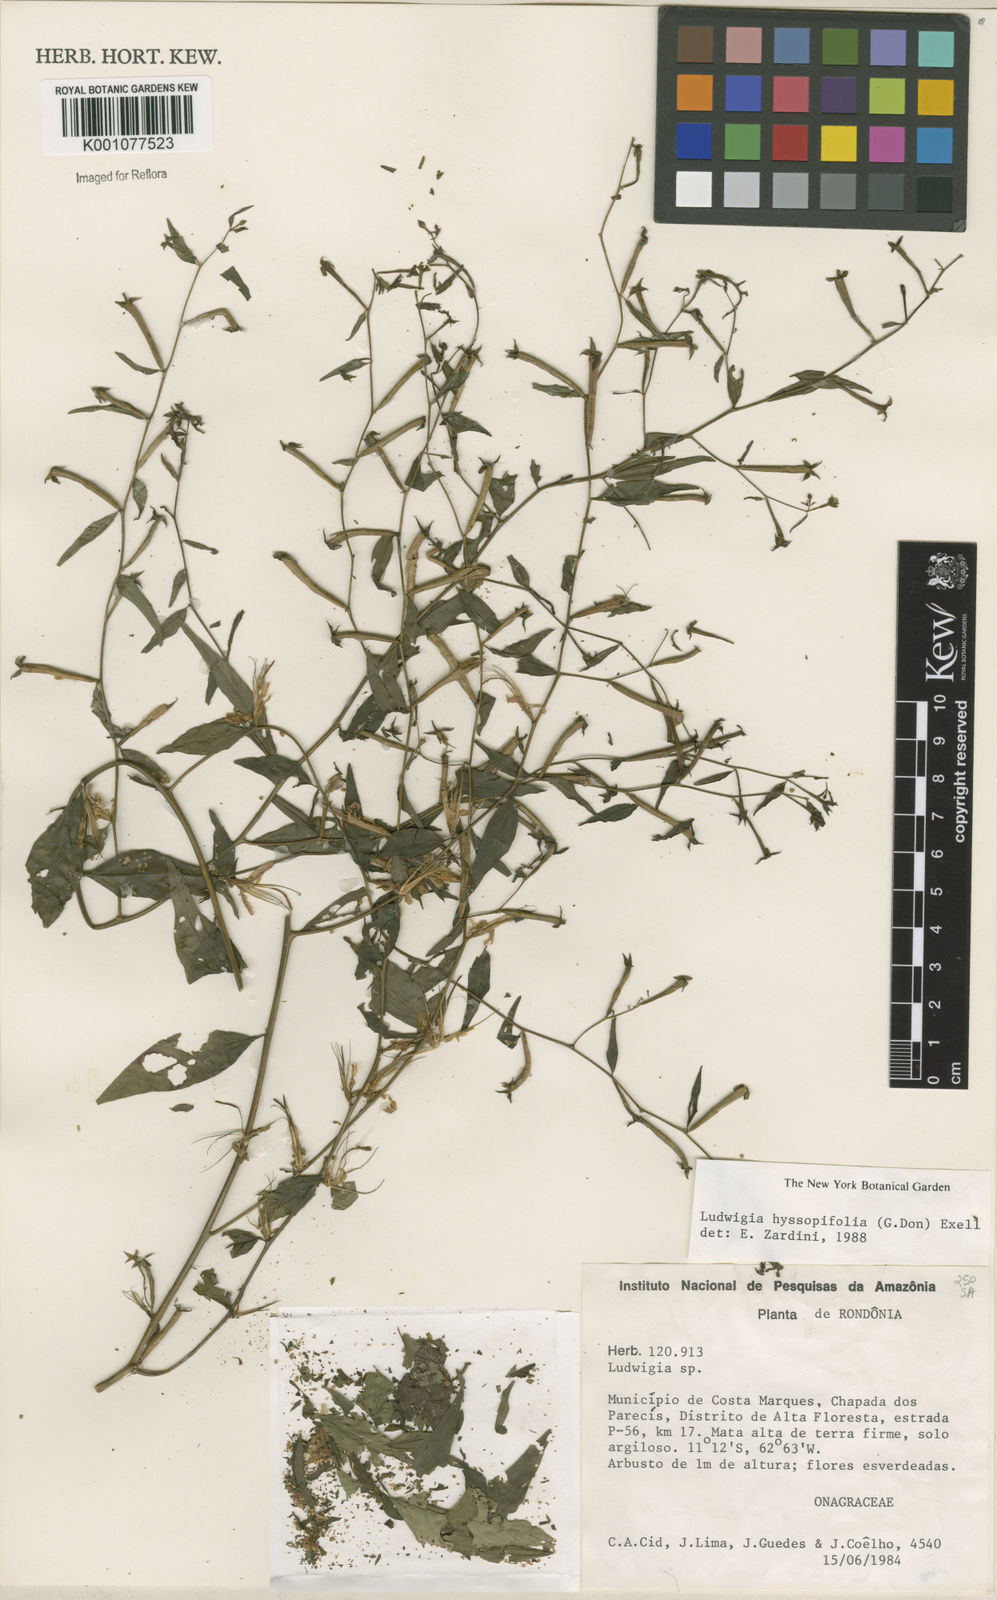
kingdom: Plantae
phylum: Tracheophyta
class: Magnoliopsida
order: Myrtales
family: Onagraceae
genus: Ludwigia
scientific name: Ludwigia hyssopifolia
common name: Linear leaf water primrose
